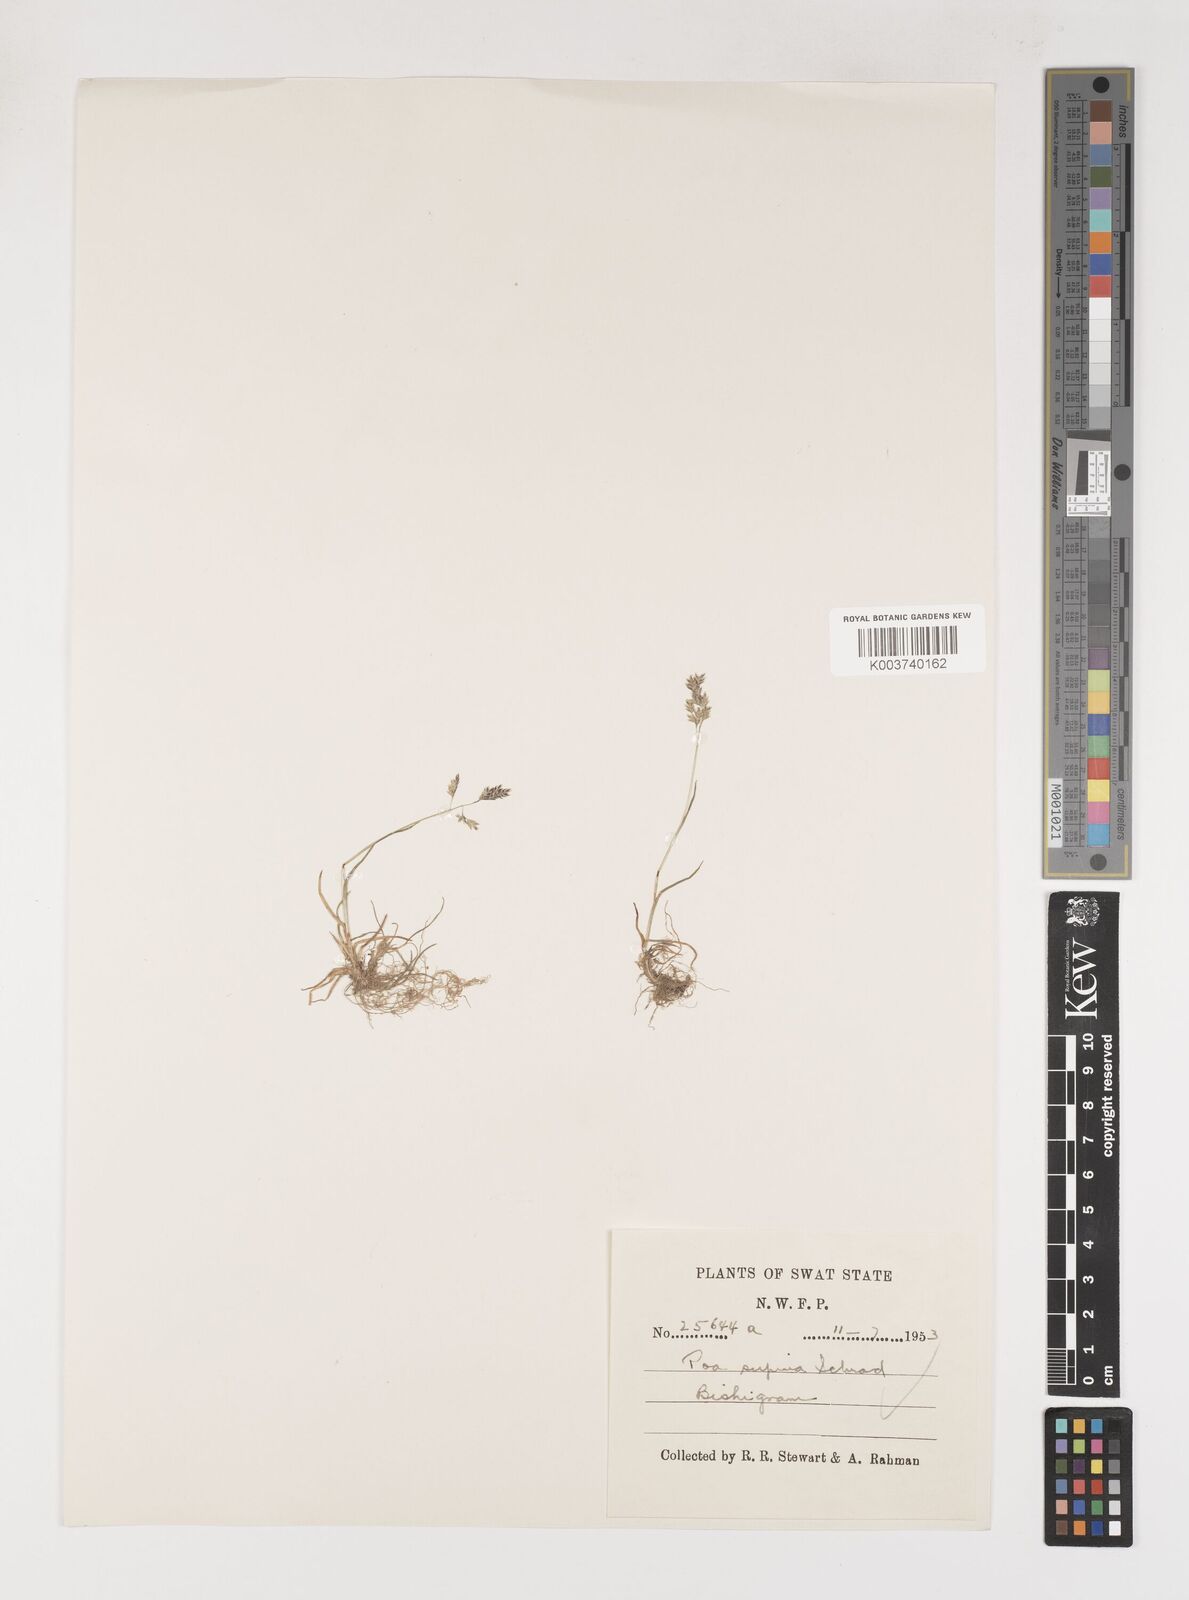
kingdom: Plantae
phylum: Tracheophyta
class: Liliopsida
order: Poales
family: Poaceae
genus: Poa
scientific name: Poa supina
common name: Supina bluegrass
